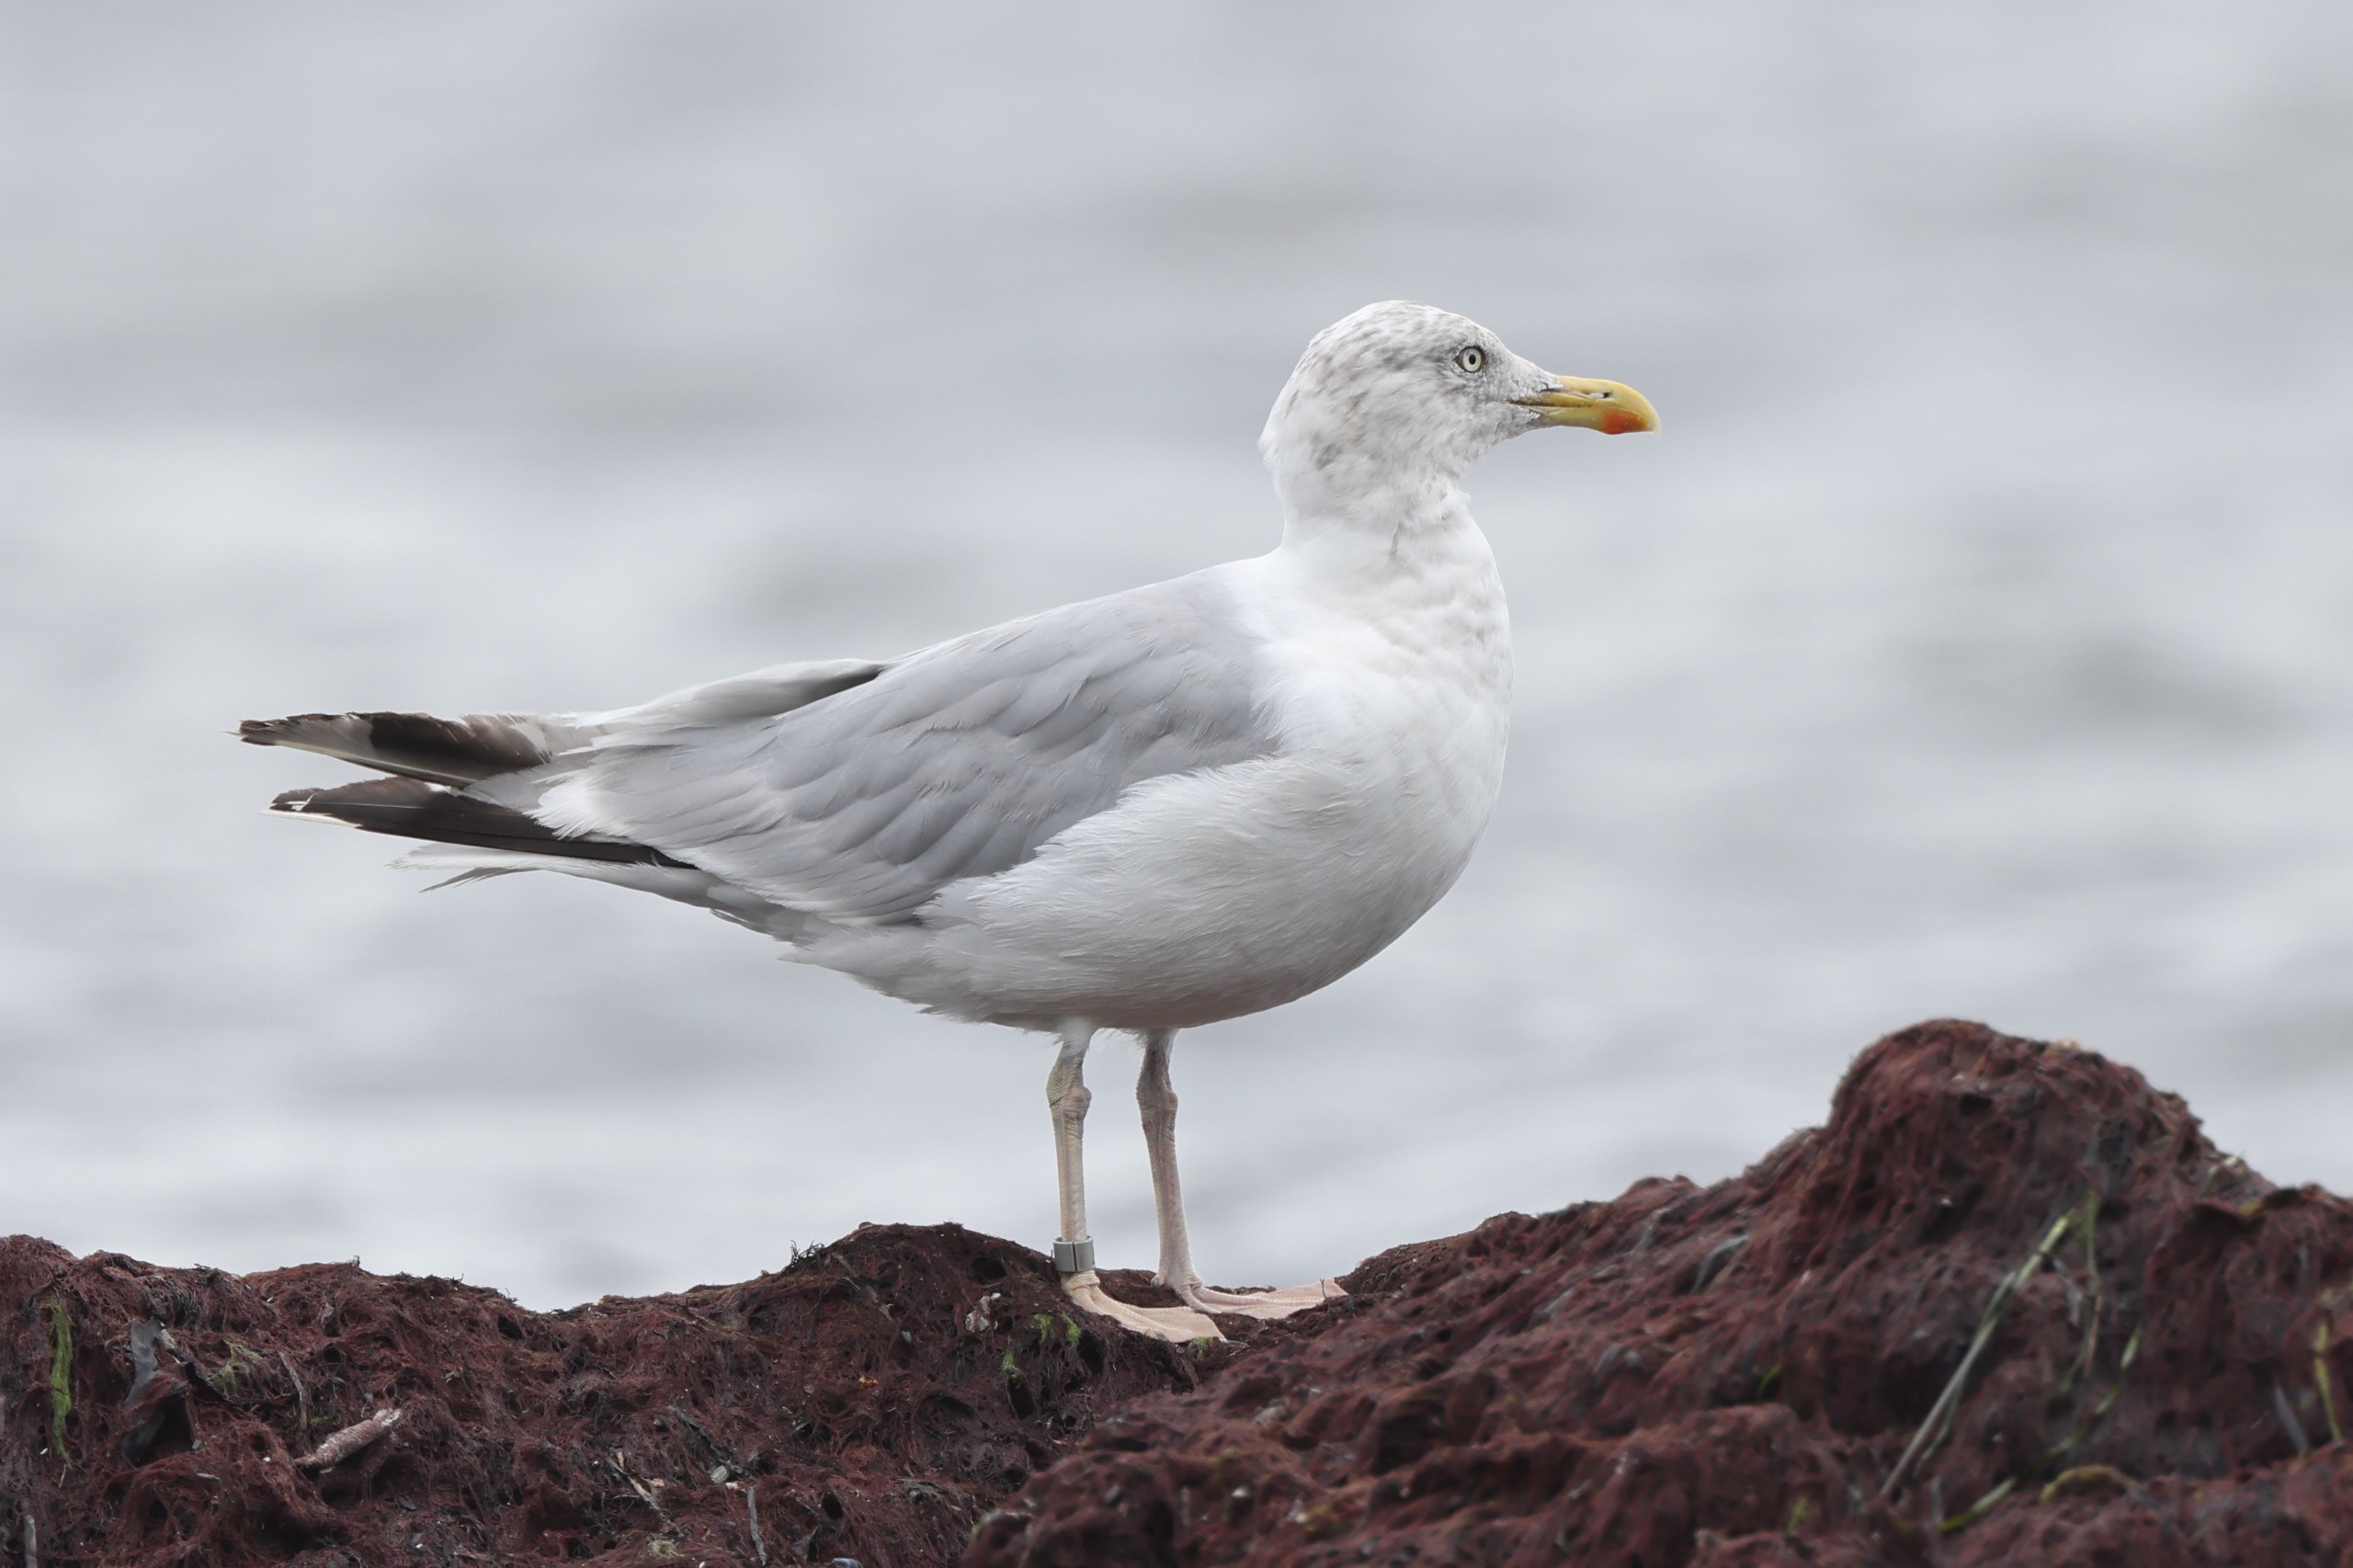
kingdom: Animalia
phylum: Chordata
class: Aves
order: Charadriiformes
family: Laridae
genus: Larus
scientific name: Larus argentatus
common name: Sølvmåge
